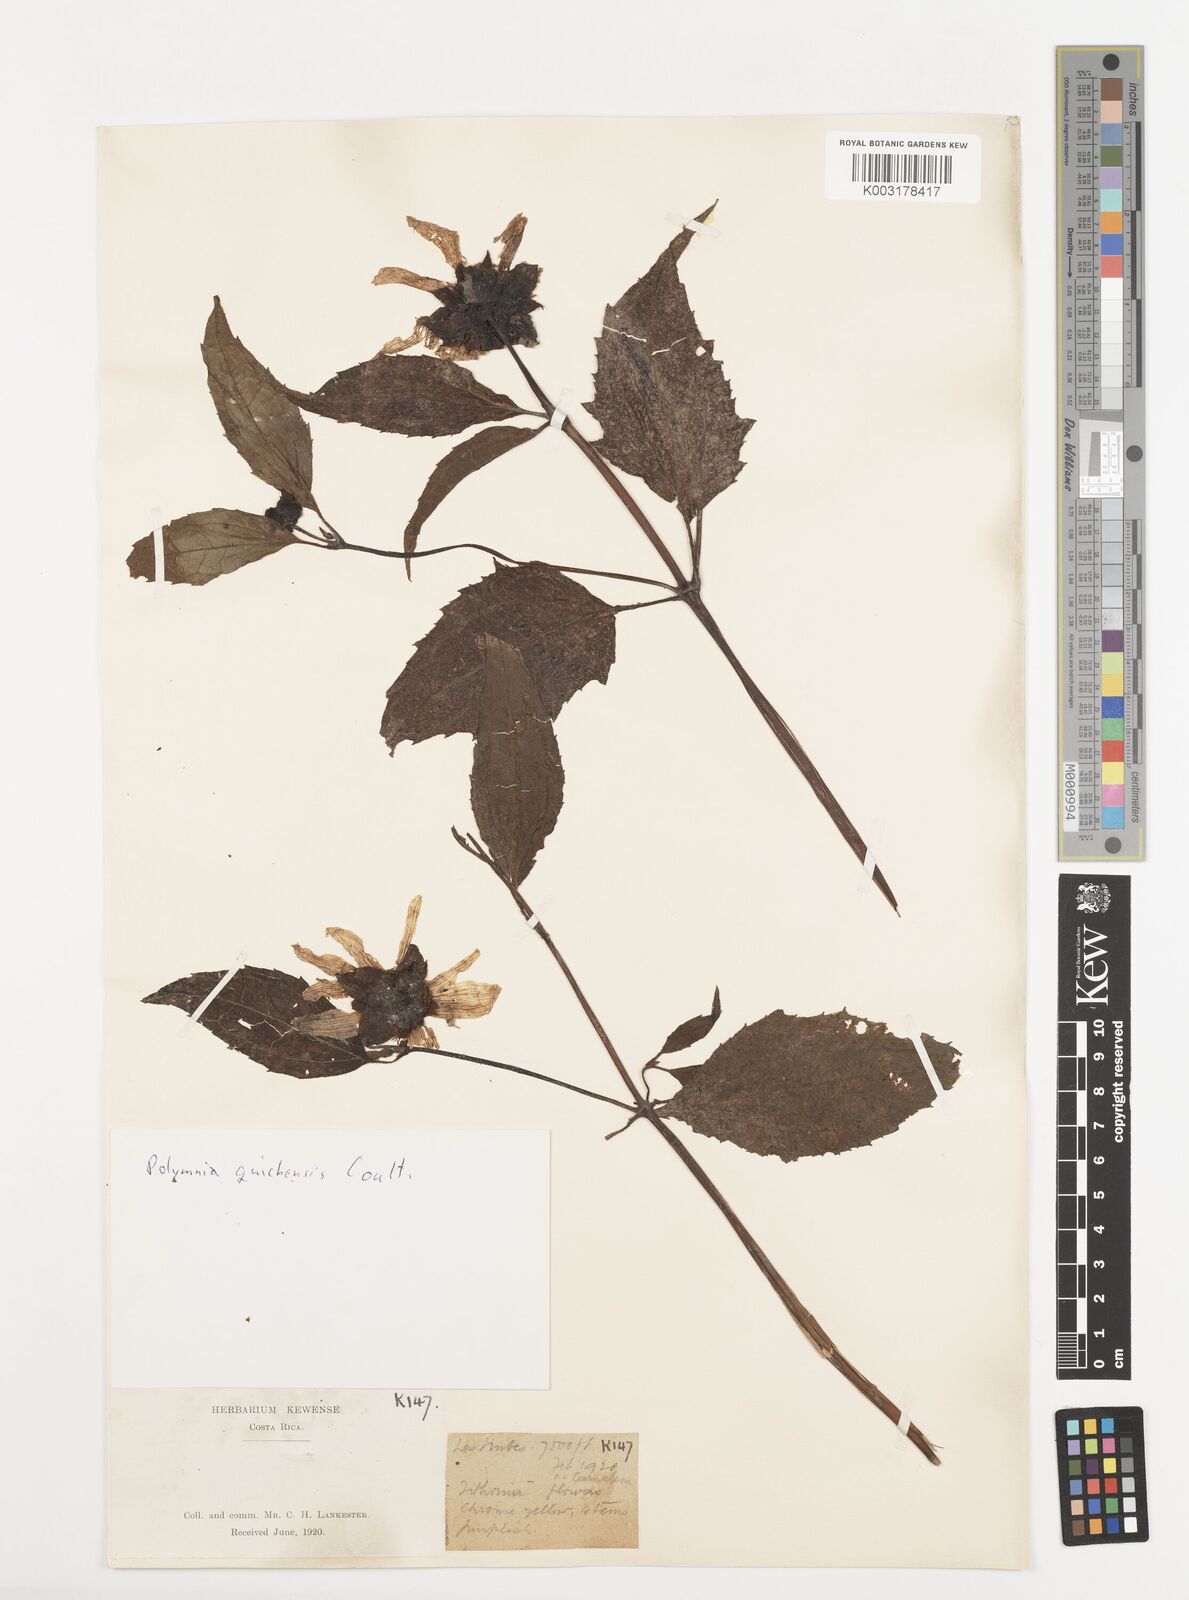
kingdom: Plantae
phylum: Tracheophyta
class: Magnoliopsida
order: Asterales
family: Asteraceae
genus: Smallanthus
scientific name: Smallanthus quichensis
